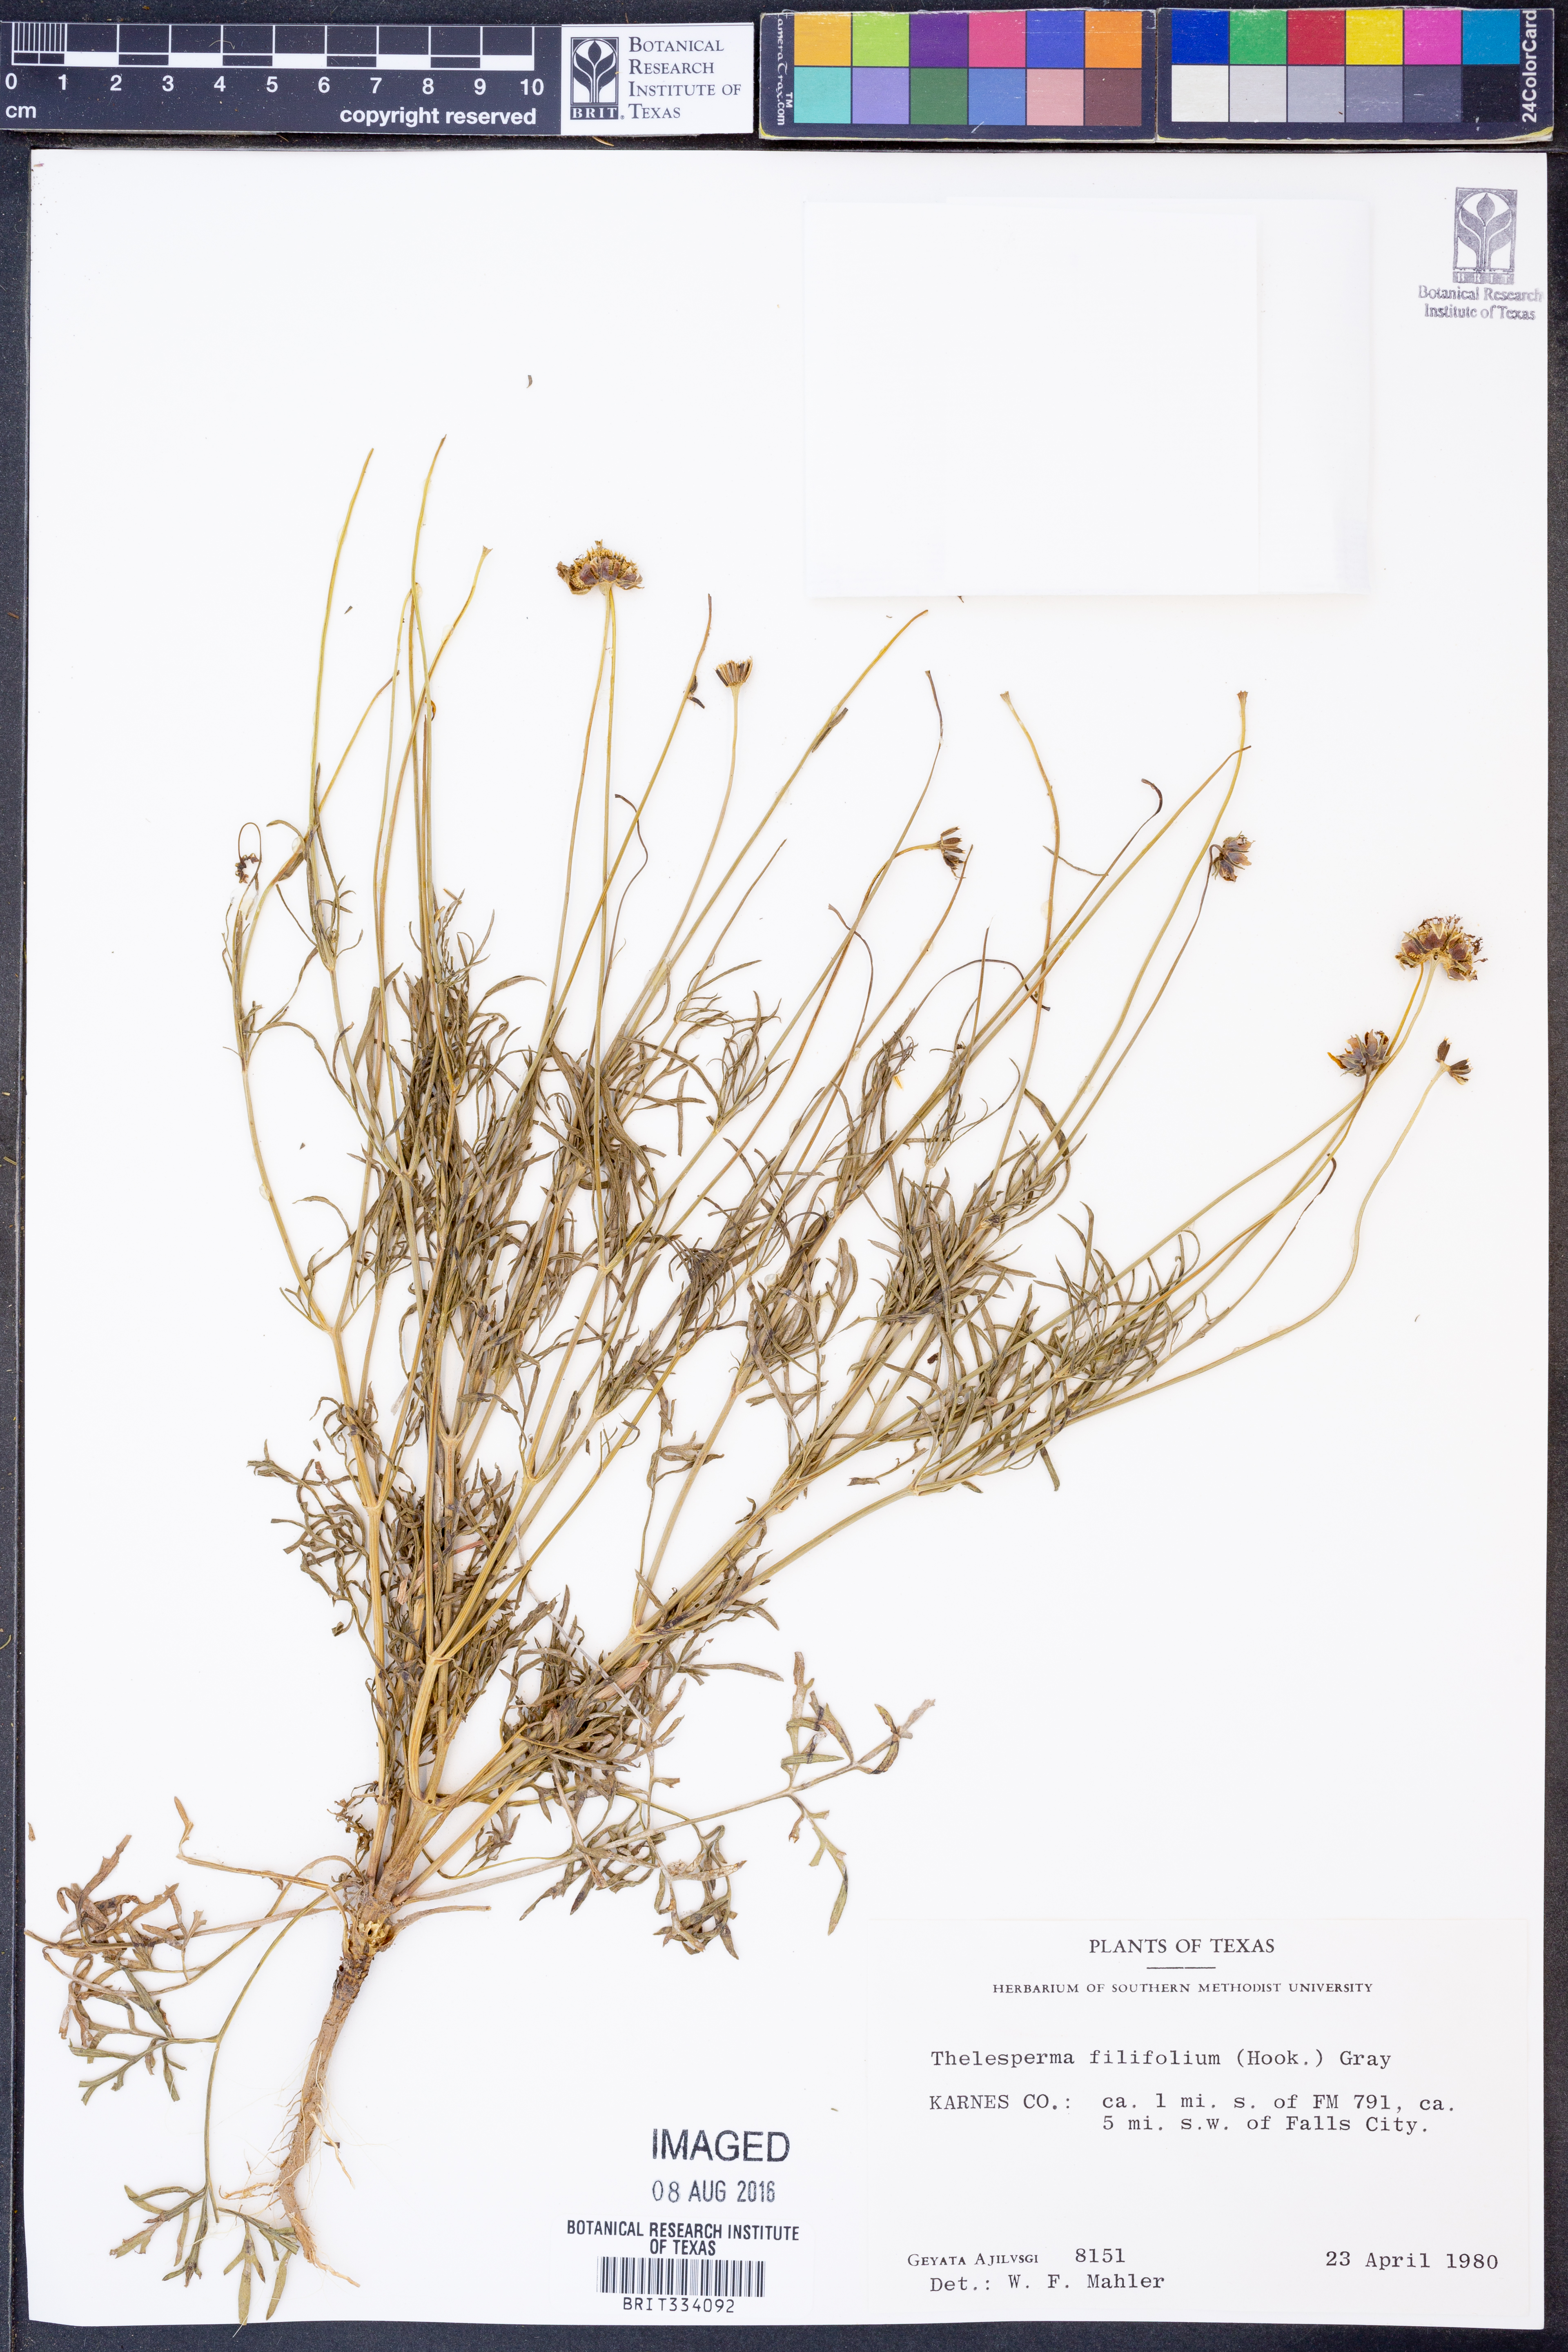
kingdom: Plantae
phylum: Tracheophyta
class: Magnoliopsida
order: Asterales
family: Asteraceae
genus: Thelesperma
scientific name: Thelesperma filifolium
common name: Stiff greenthread
